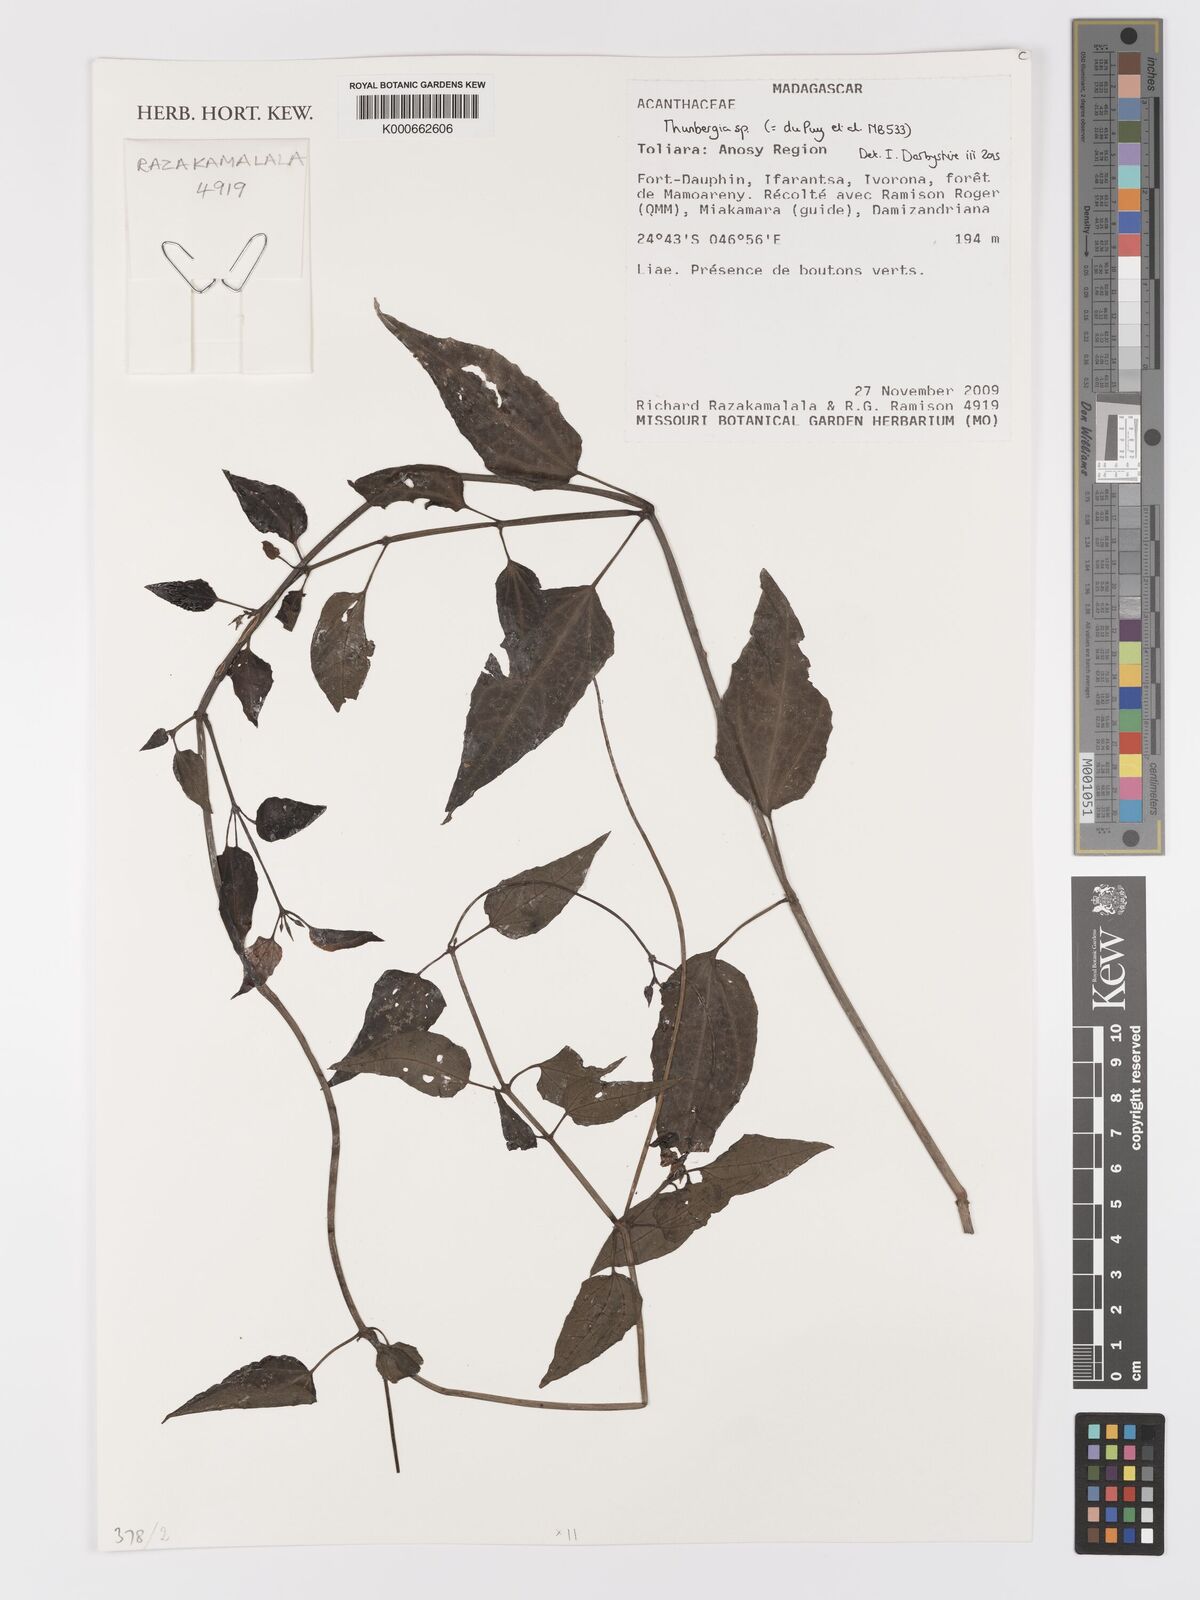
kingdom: Plantae
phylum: Tracheophyta
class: Magnoliopsida
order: Lamiales
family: Acanthaceae
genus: Thunbergia
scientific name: Thunbergia
